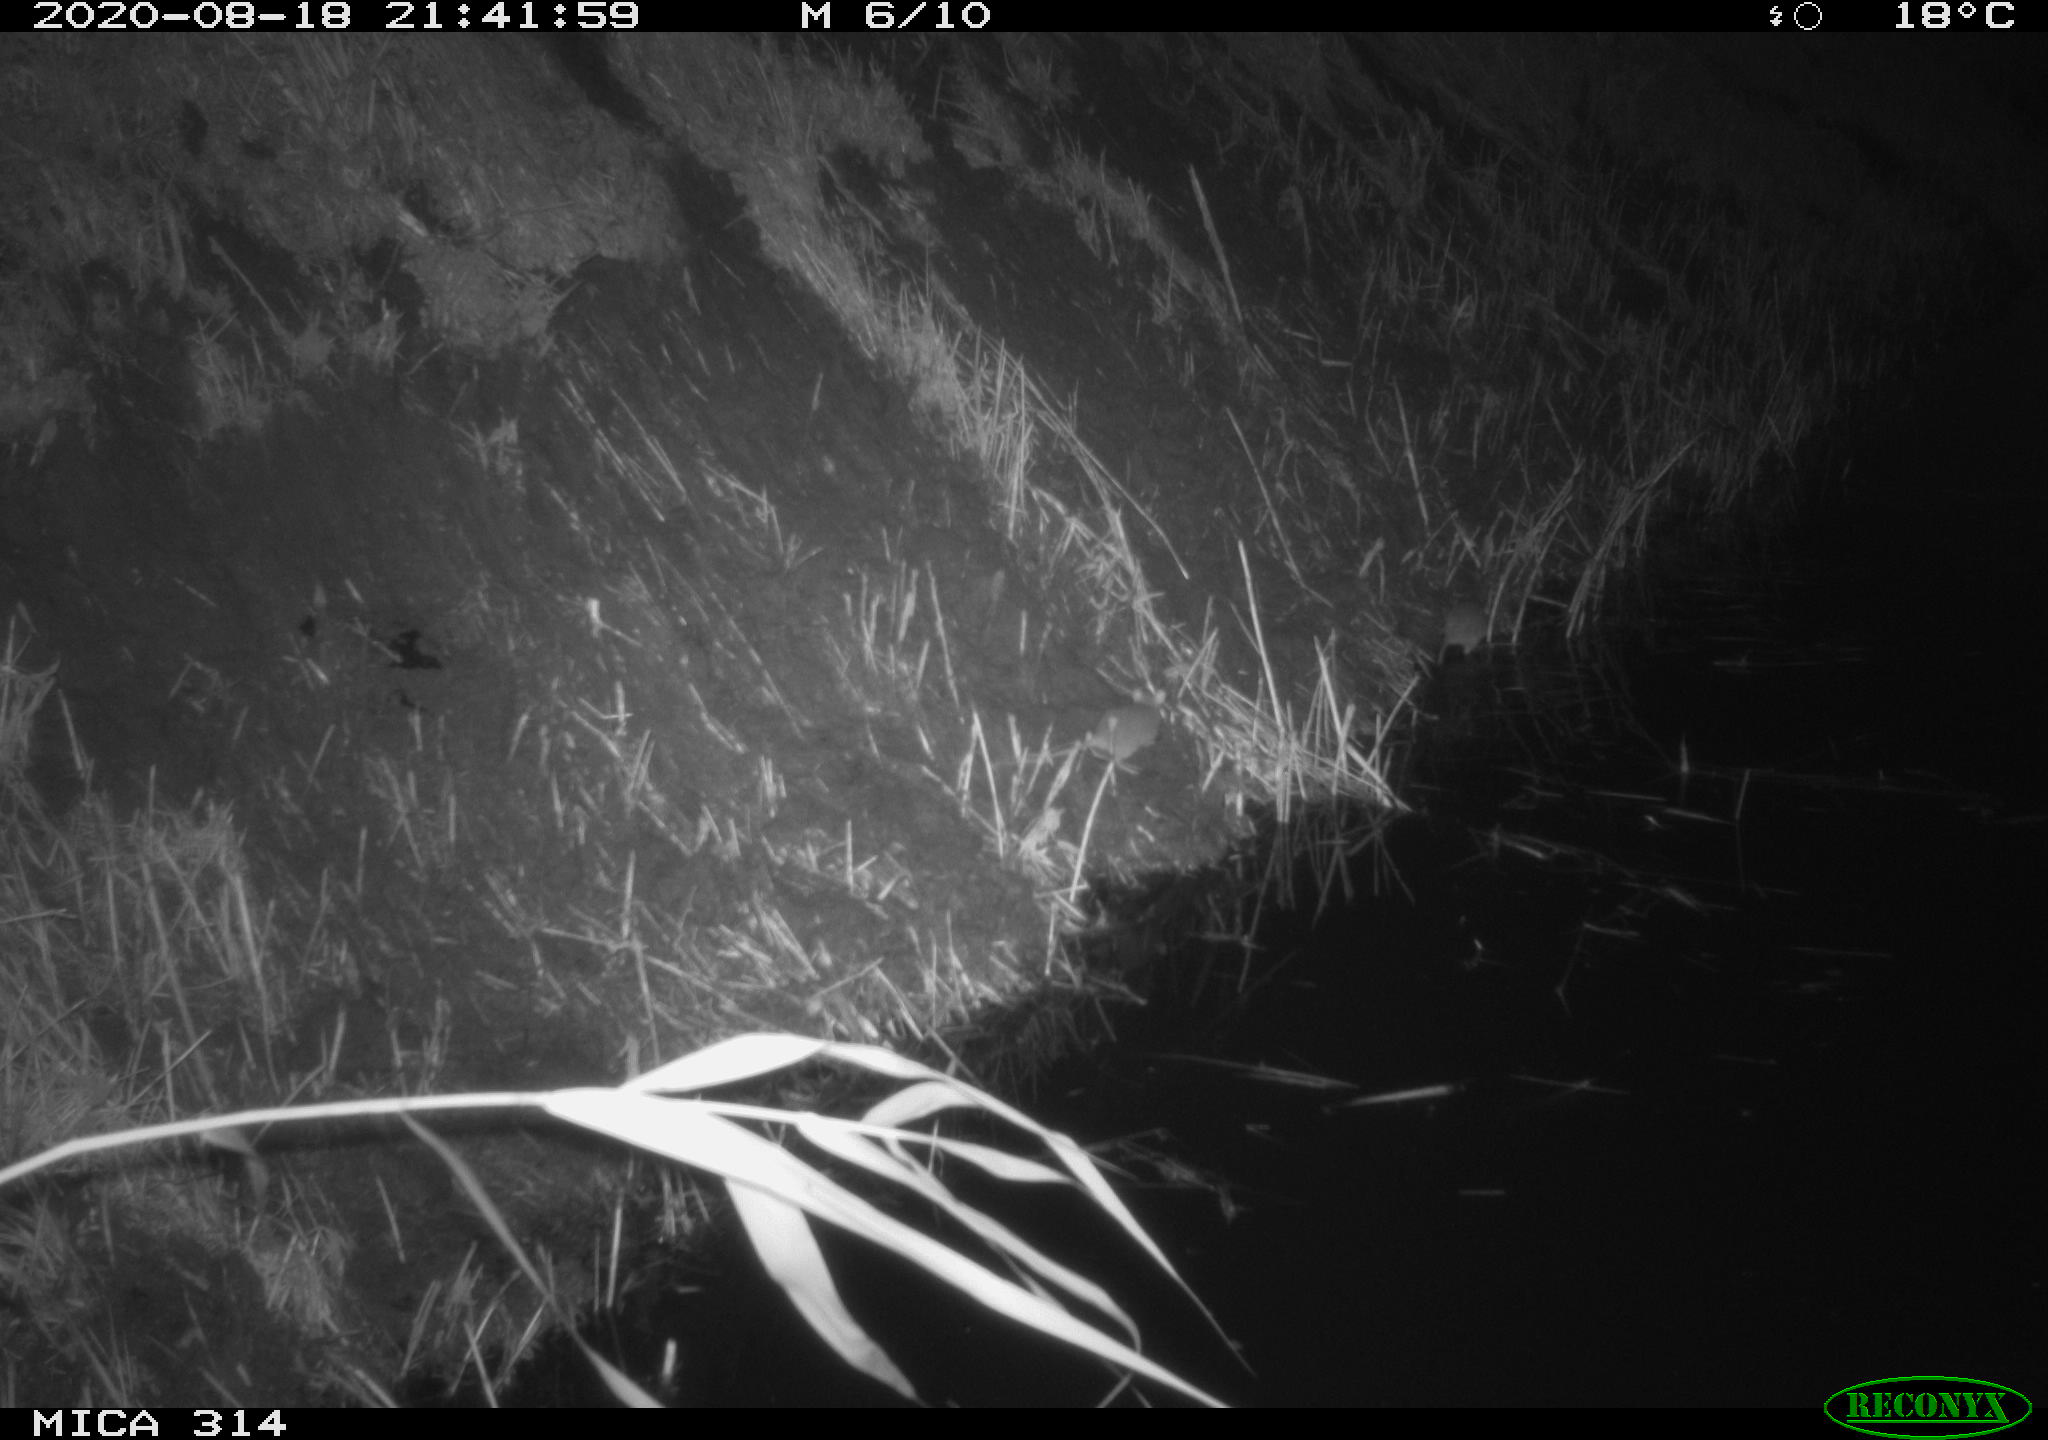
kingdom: Animalia
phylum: Chordata
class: Mammalia
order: Rodentia
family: Muridae
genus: Rattus
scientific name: Rattus norvegicus
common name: Brown rat
